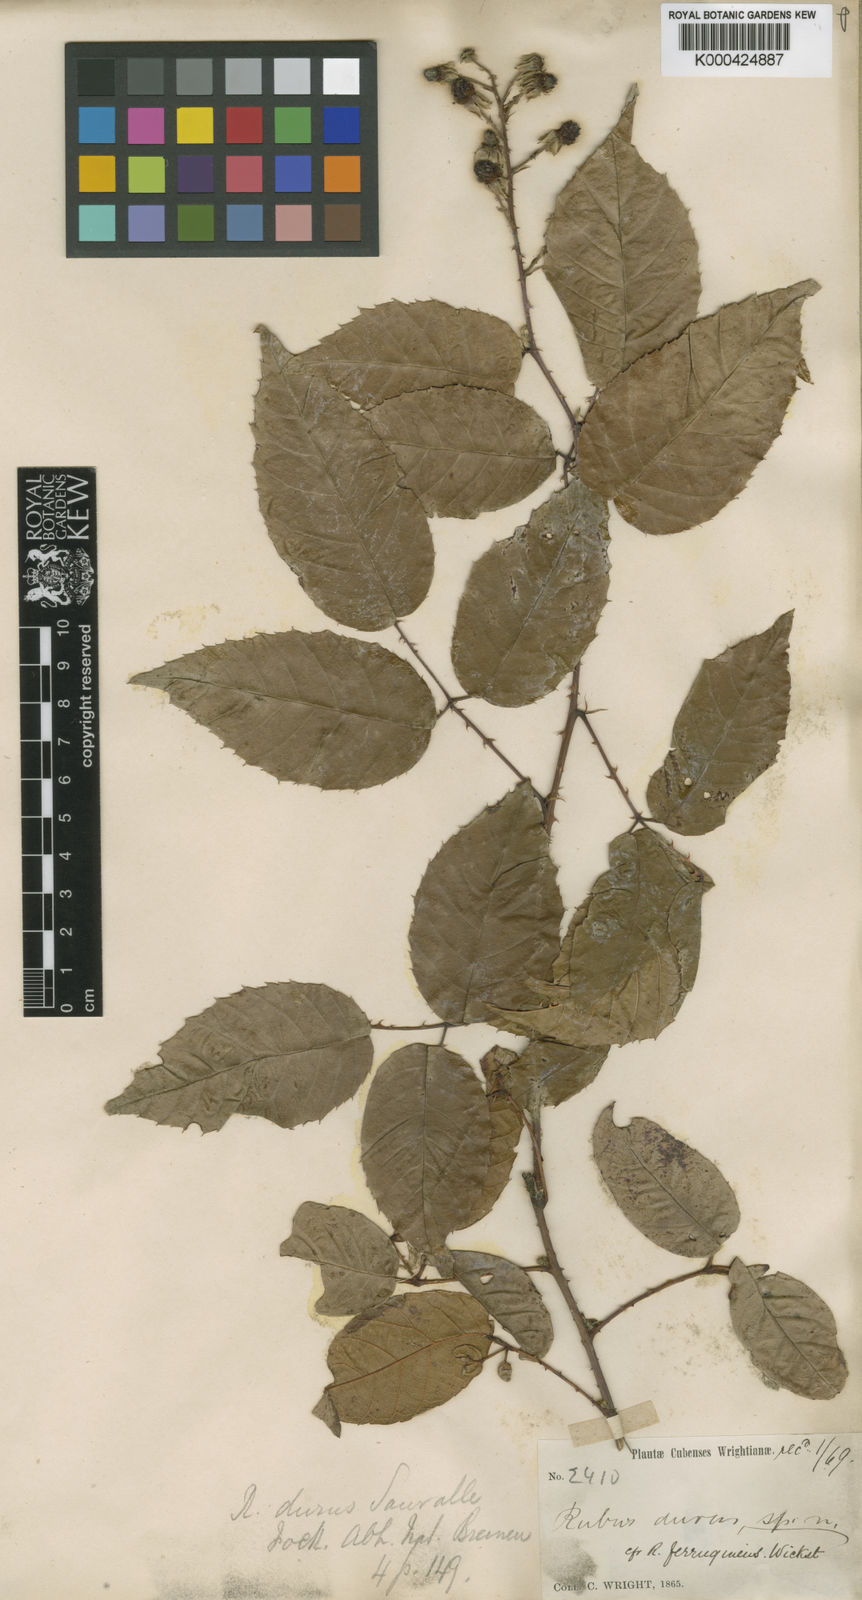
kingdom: Plantae
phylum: Tracheophyta
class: Magnoliopsida
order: Rosales
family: Rosaceae
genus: Rubus
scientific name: Rubus
